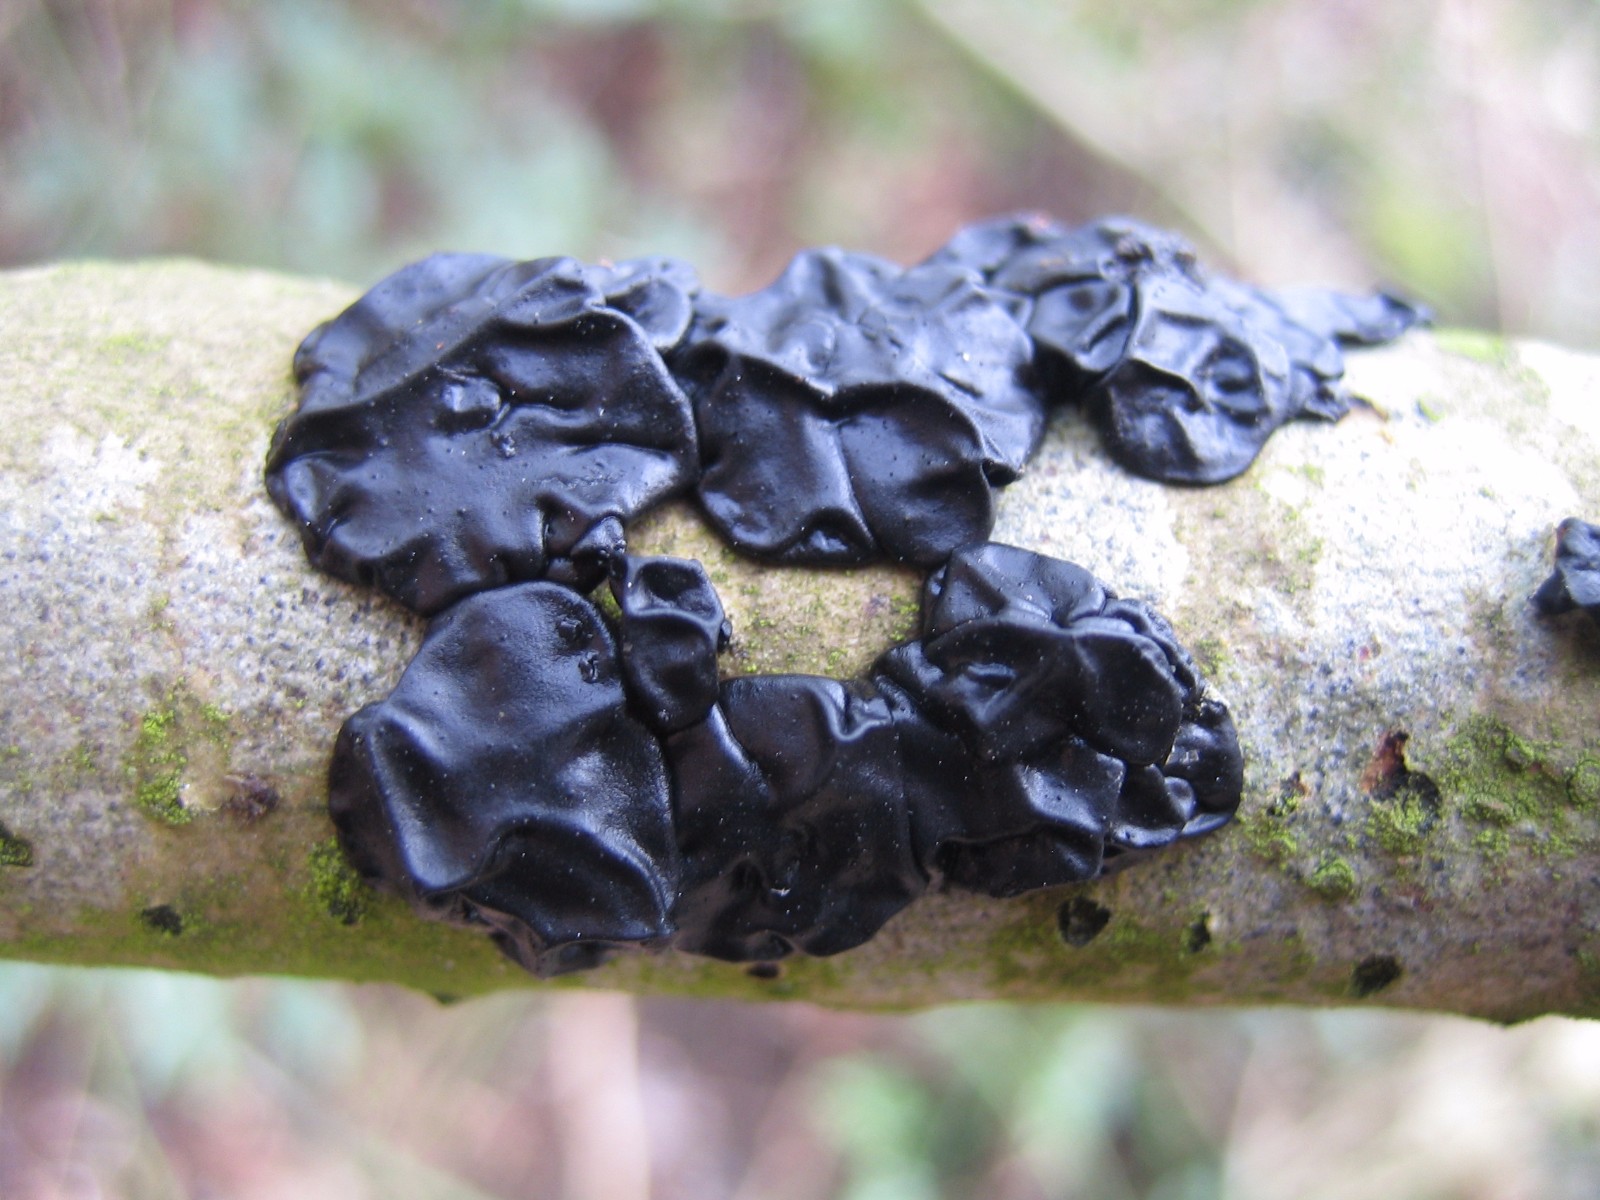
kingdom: Fungi
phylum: Basidiomycota
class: Agaricomycetes
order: Auriculariales
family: Auriculariaceae
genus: Exidia
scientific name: Exidia nigricans
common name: almindelig bævretop
